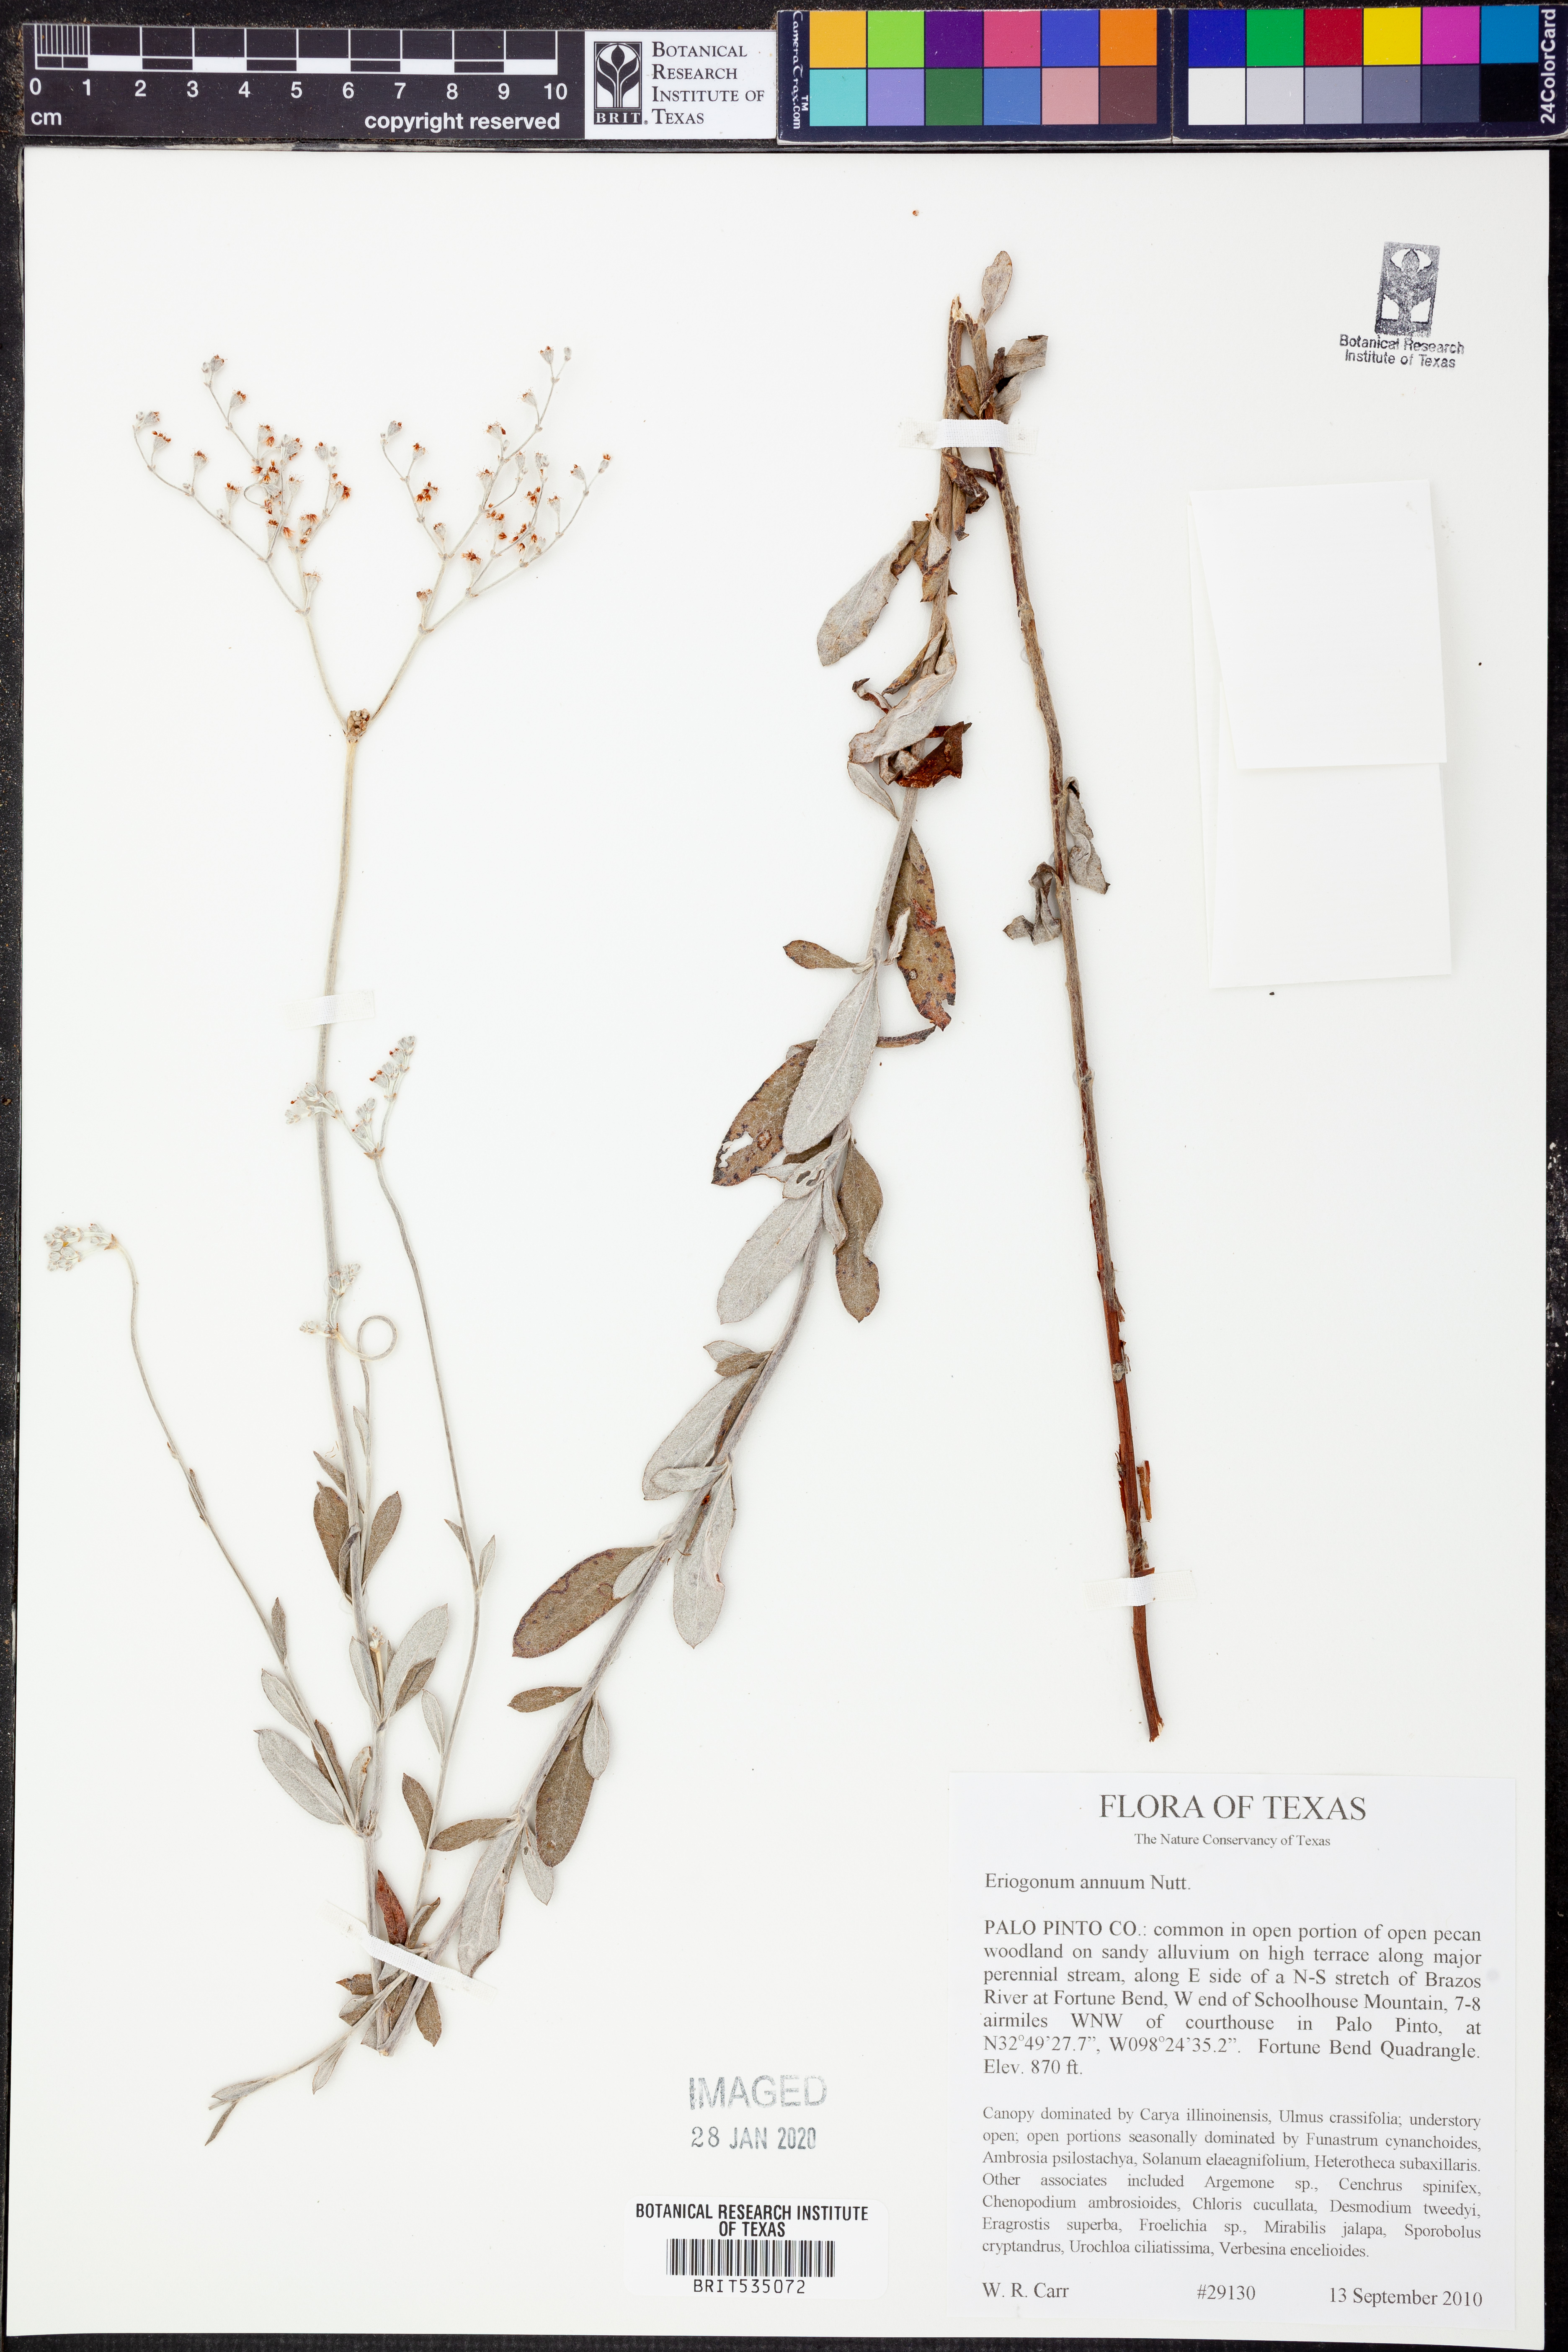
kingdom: Plantae
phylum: Tracheophyta
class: Magnoliopsida
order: Caryophyllales
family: Polygonaceae
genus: Eriogonum
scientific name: Eriogonum annuum
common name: Annual wild buckwheat
